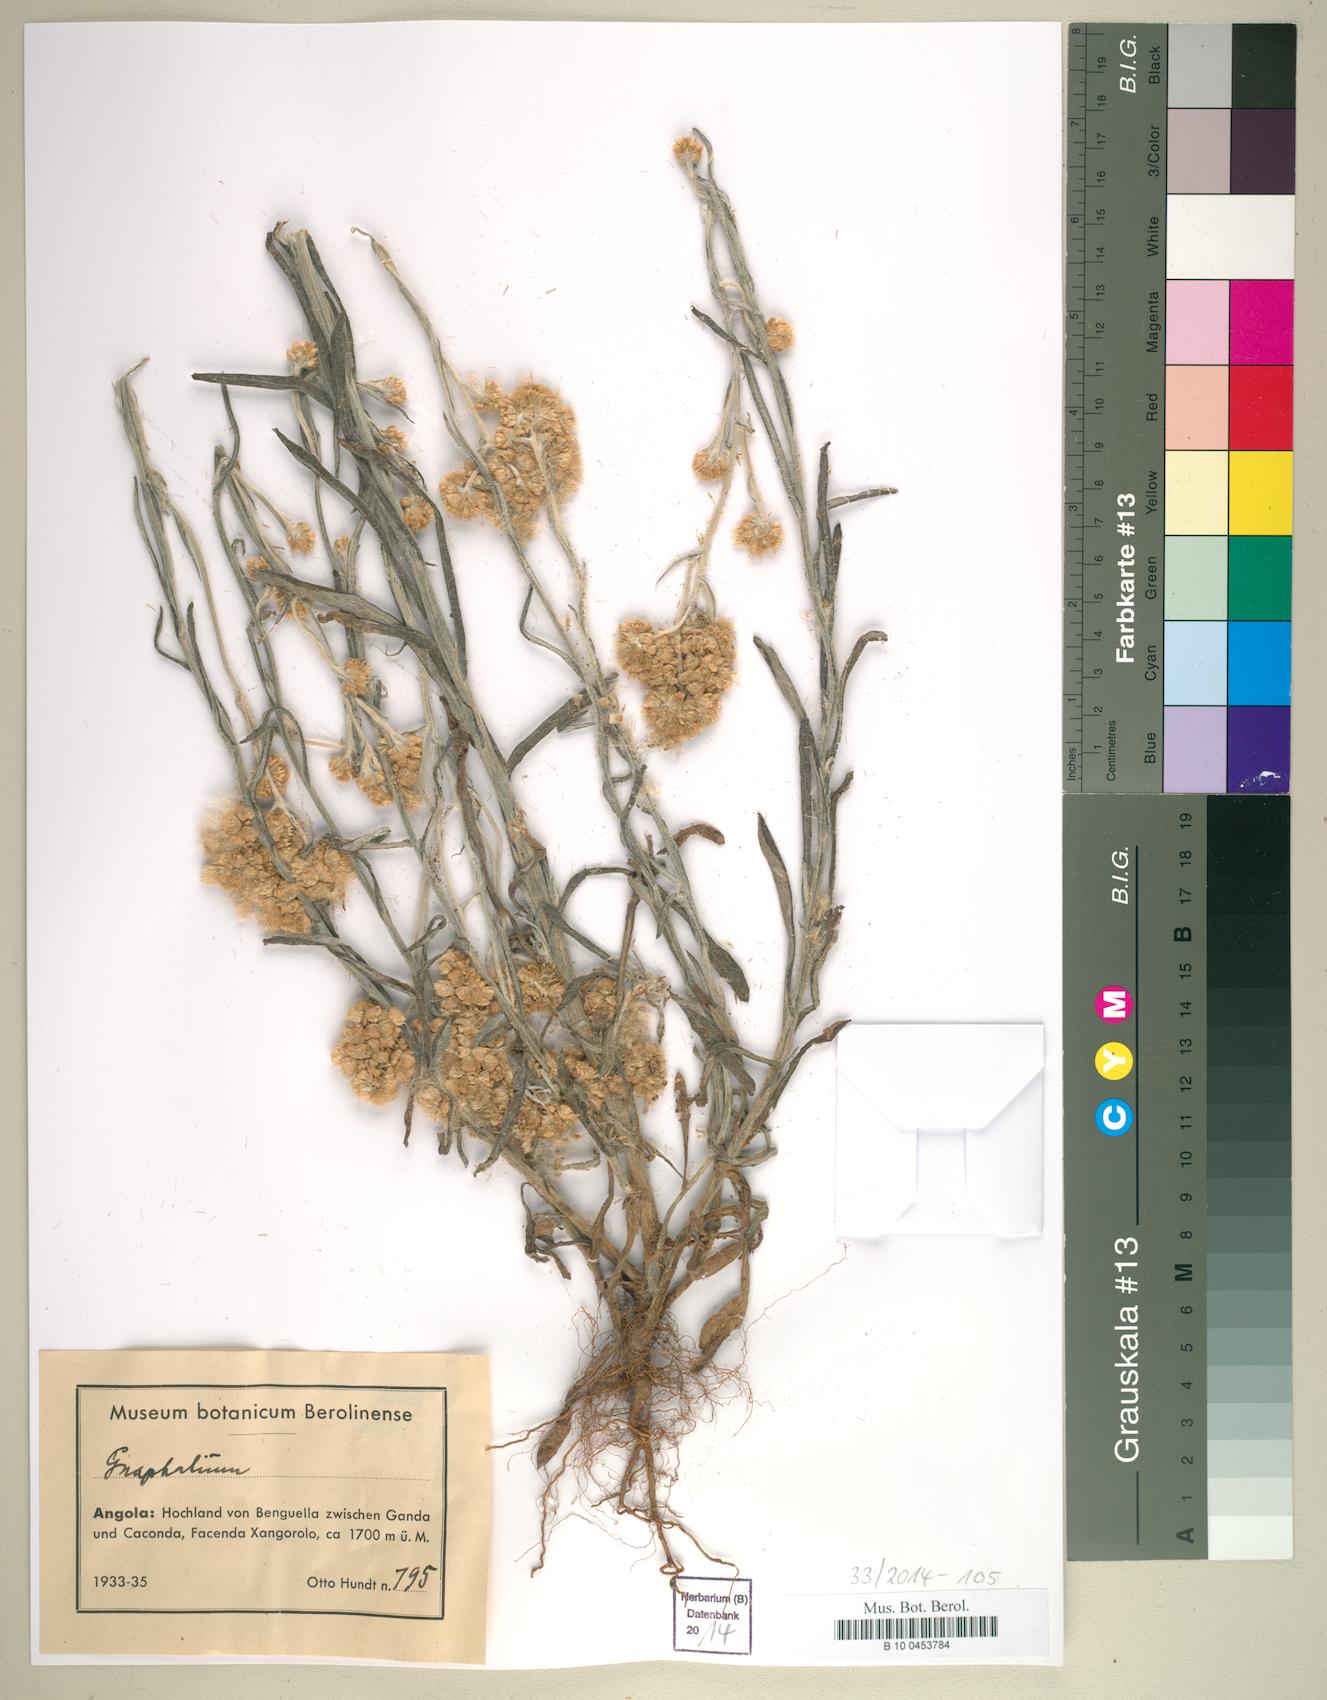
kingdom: Plantae
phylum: Tracheophyta
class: Magnoliopsida
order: Asterales
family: Asteraceae
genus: Gnaphalium
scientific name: Gnaphalium
